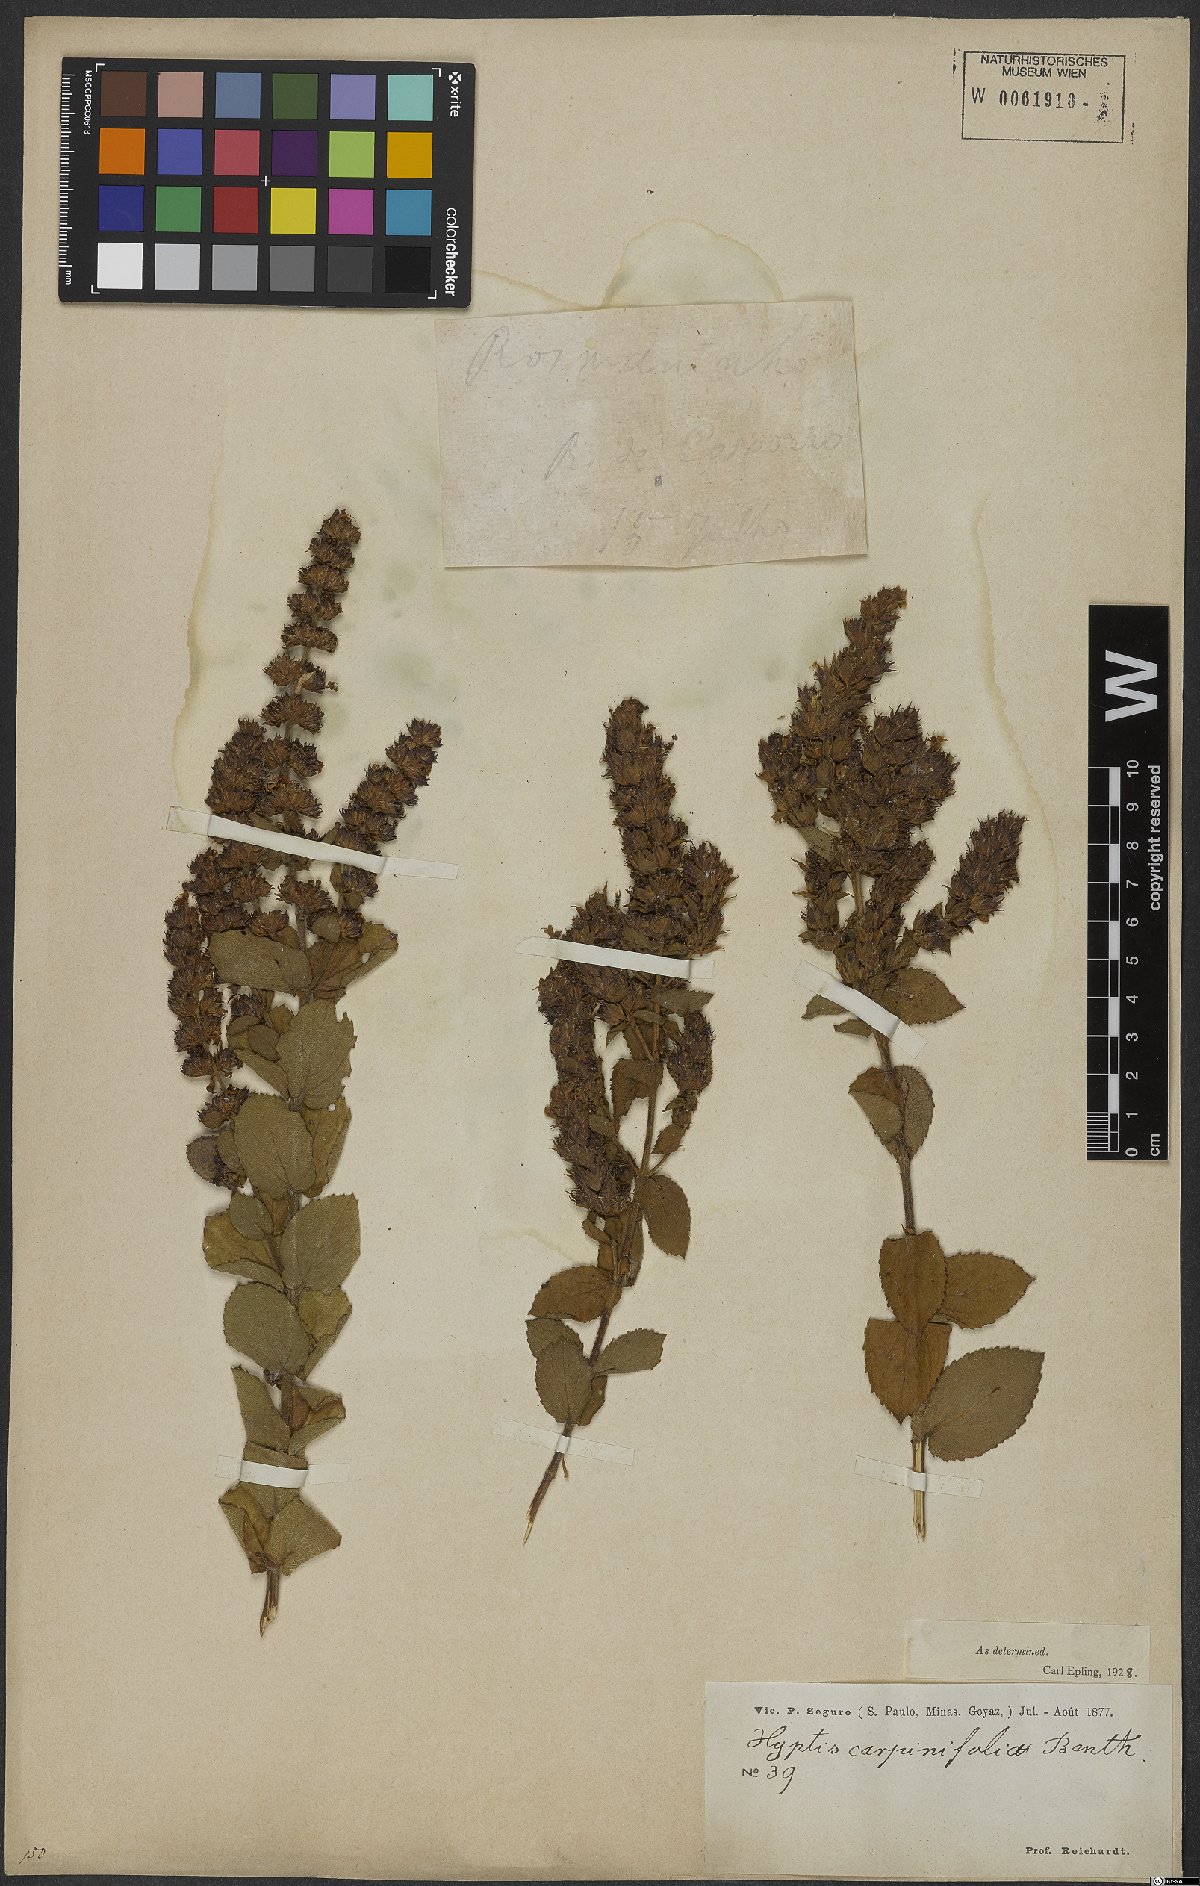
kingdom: Plantae
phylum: Tracheophyta
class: Magnoliopsida
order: Lamiales
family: Lamiaceae
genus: Cantinoa
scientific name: Cantinoa carpinifolia
